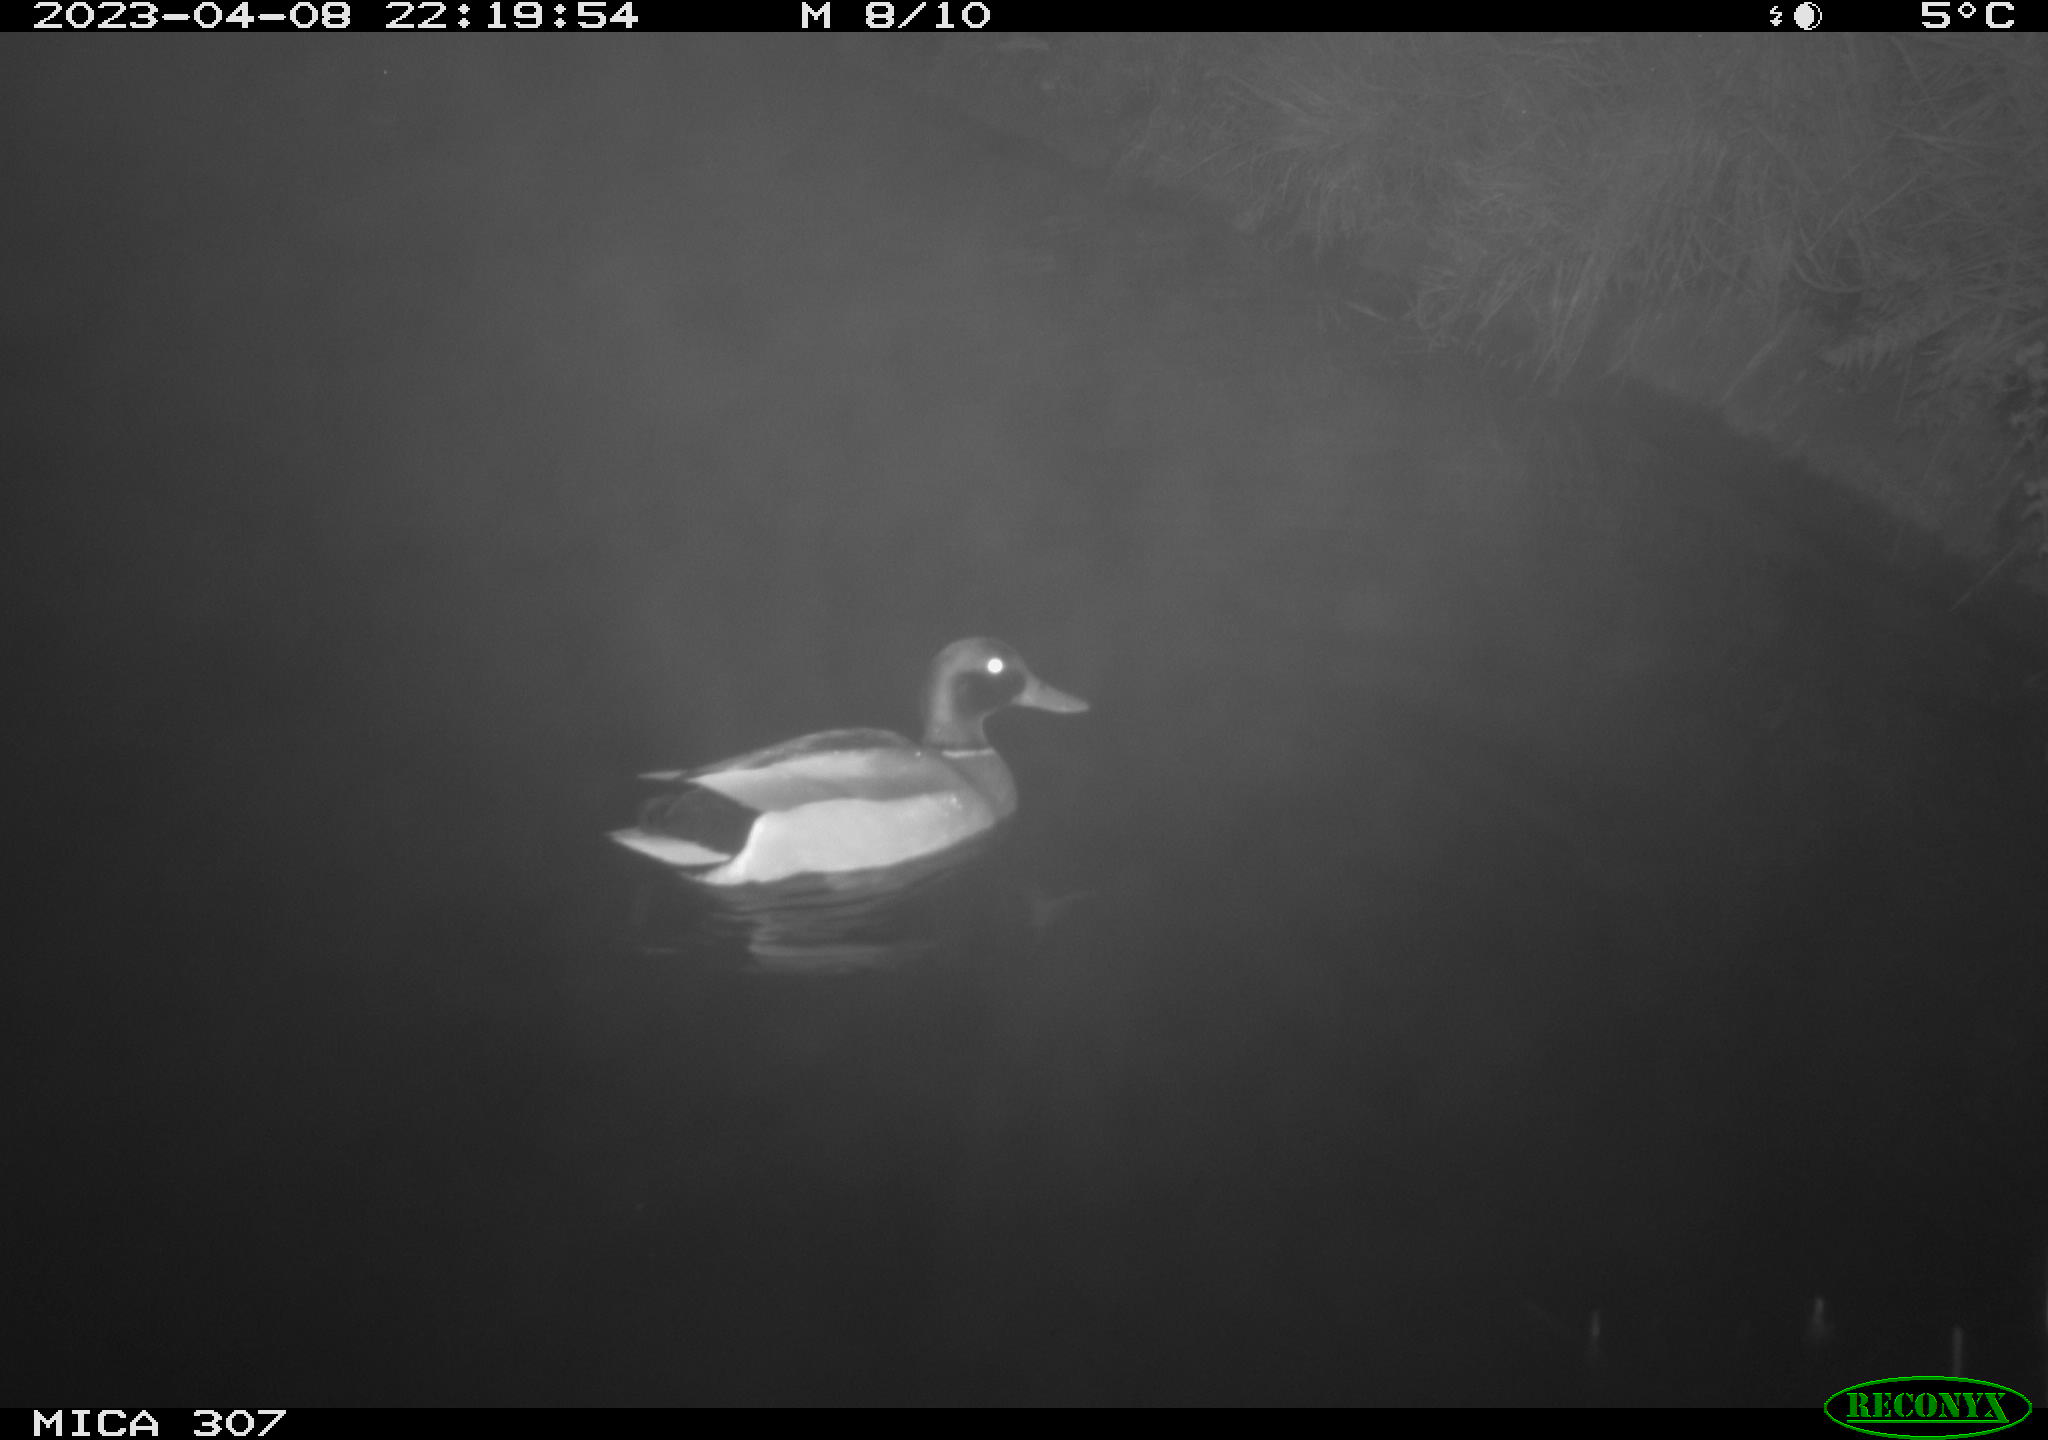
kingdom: Animalia
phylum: Chordata
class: Aves
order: Anseriformes
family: Anatidae
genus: Anas
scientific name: Anas
